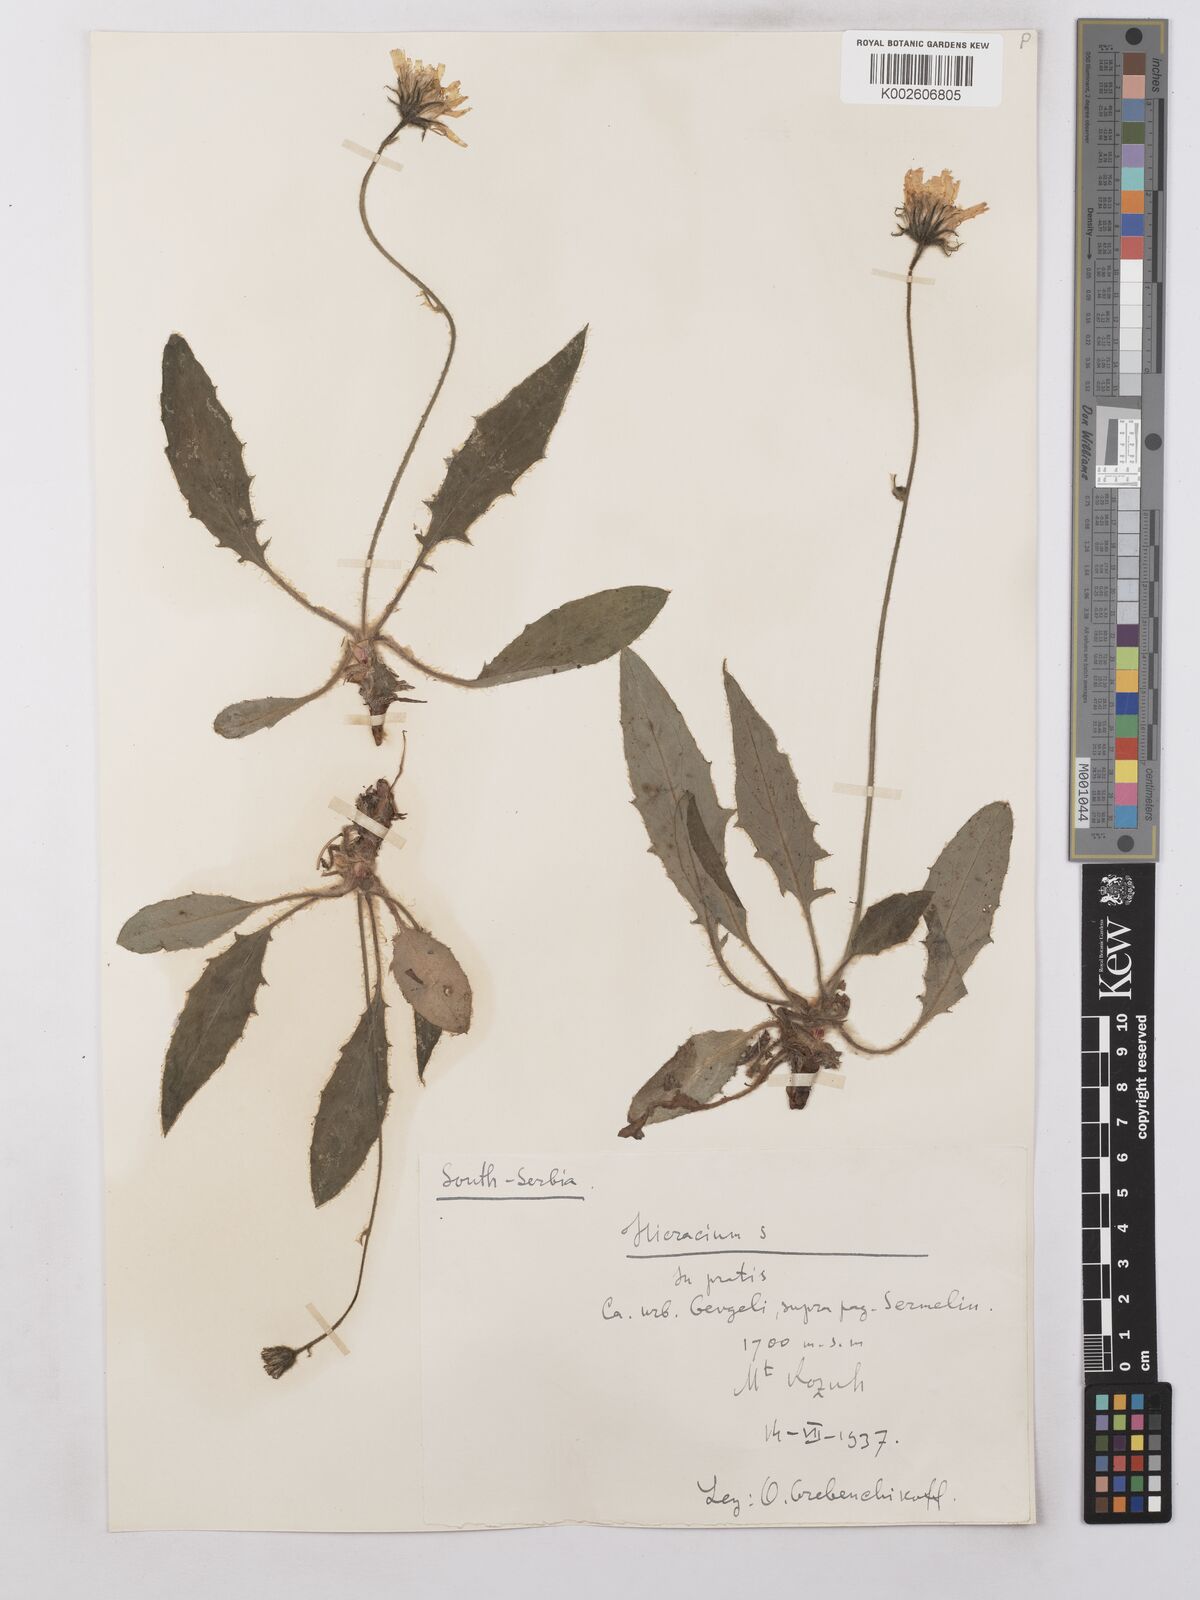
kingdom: Plantae
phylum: Tracheophyta
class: Magnoliopsida
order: Asterales
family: Asteraceae
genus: Hieracium
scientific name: Hieracium
